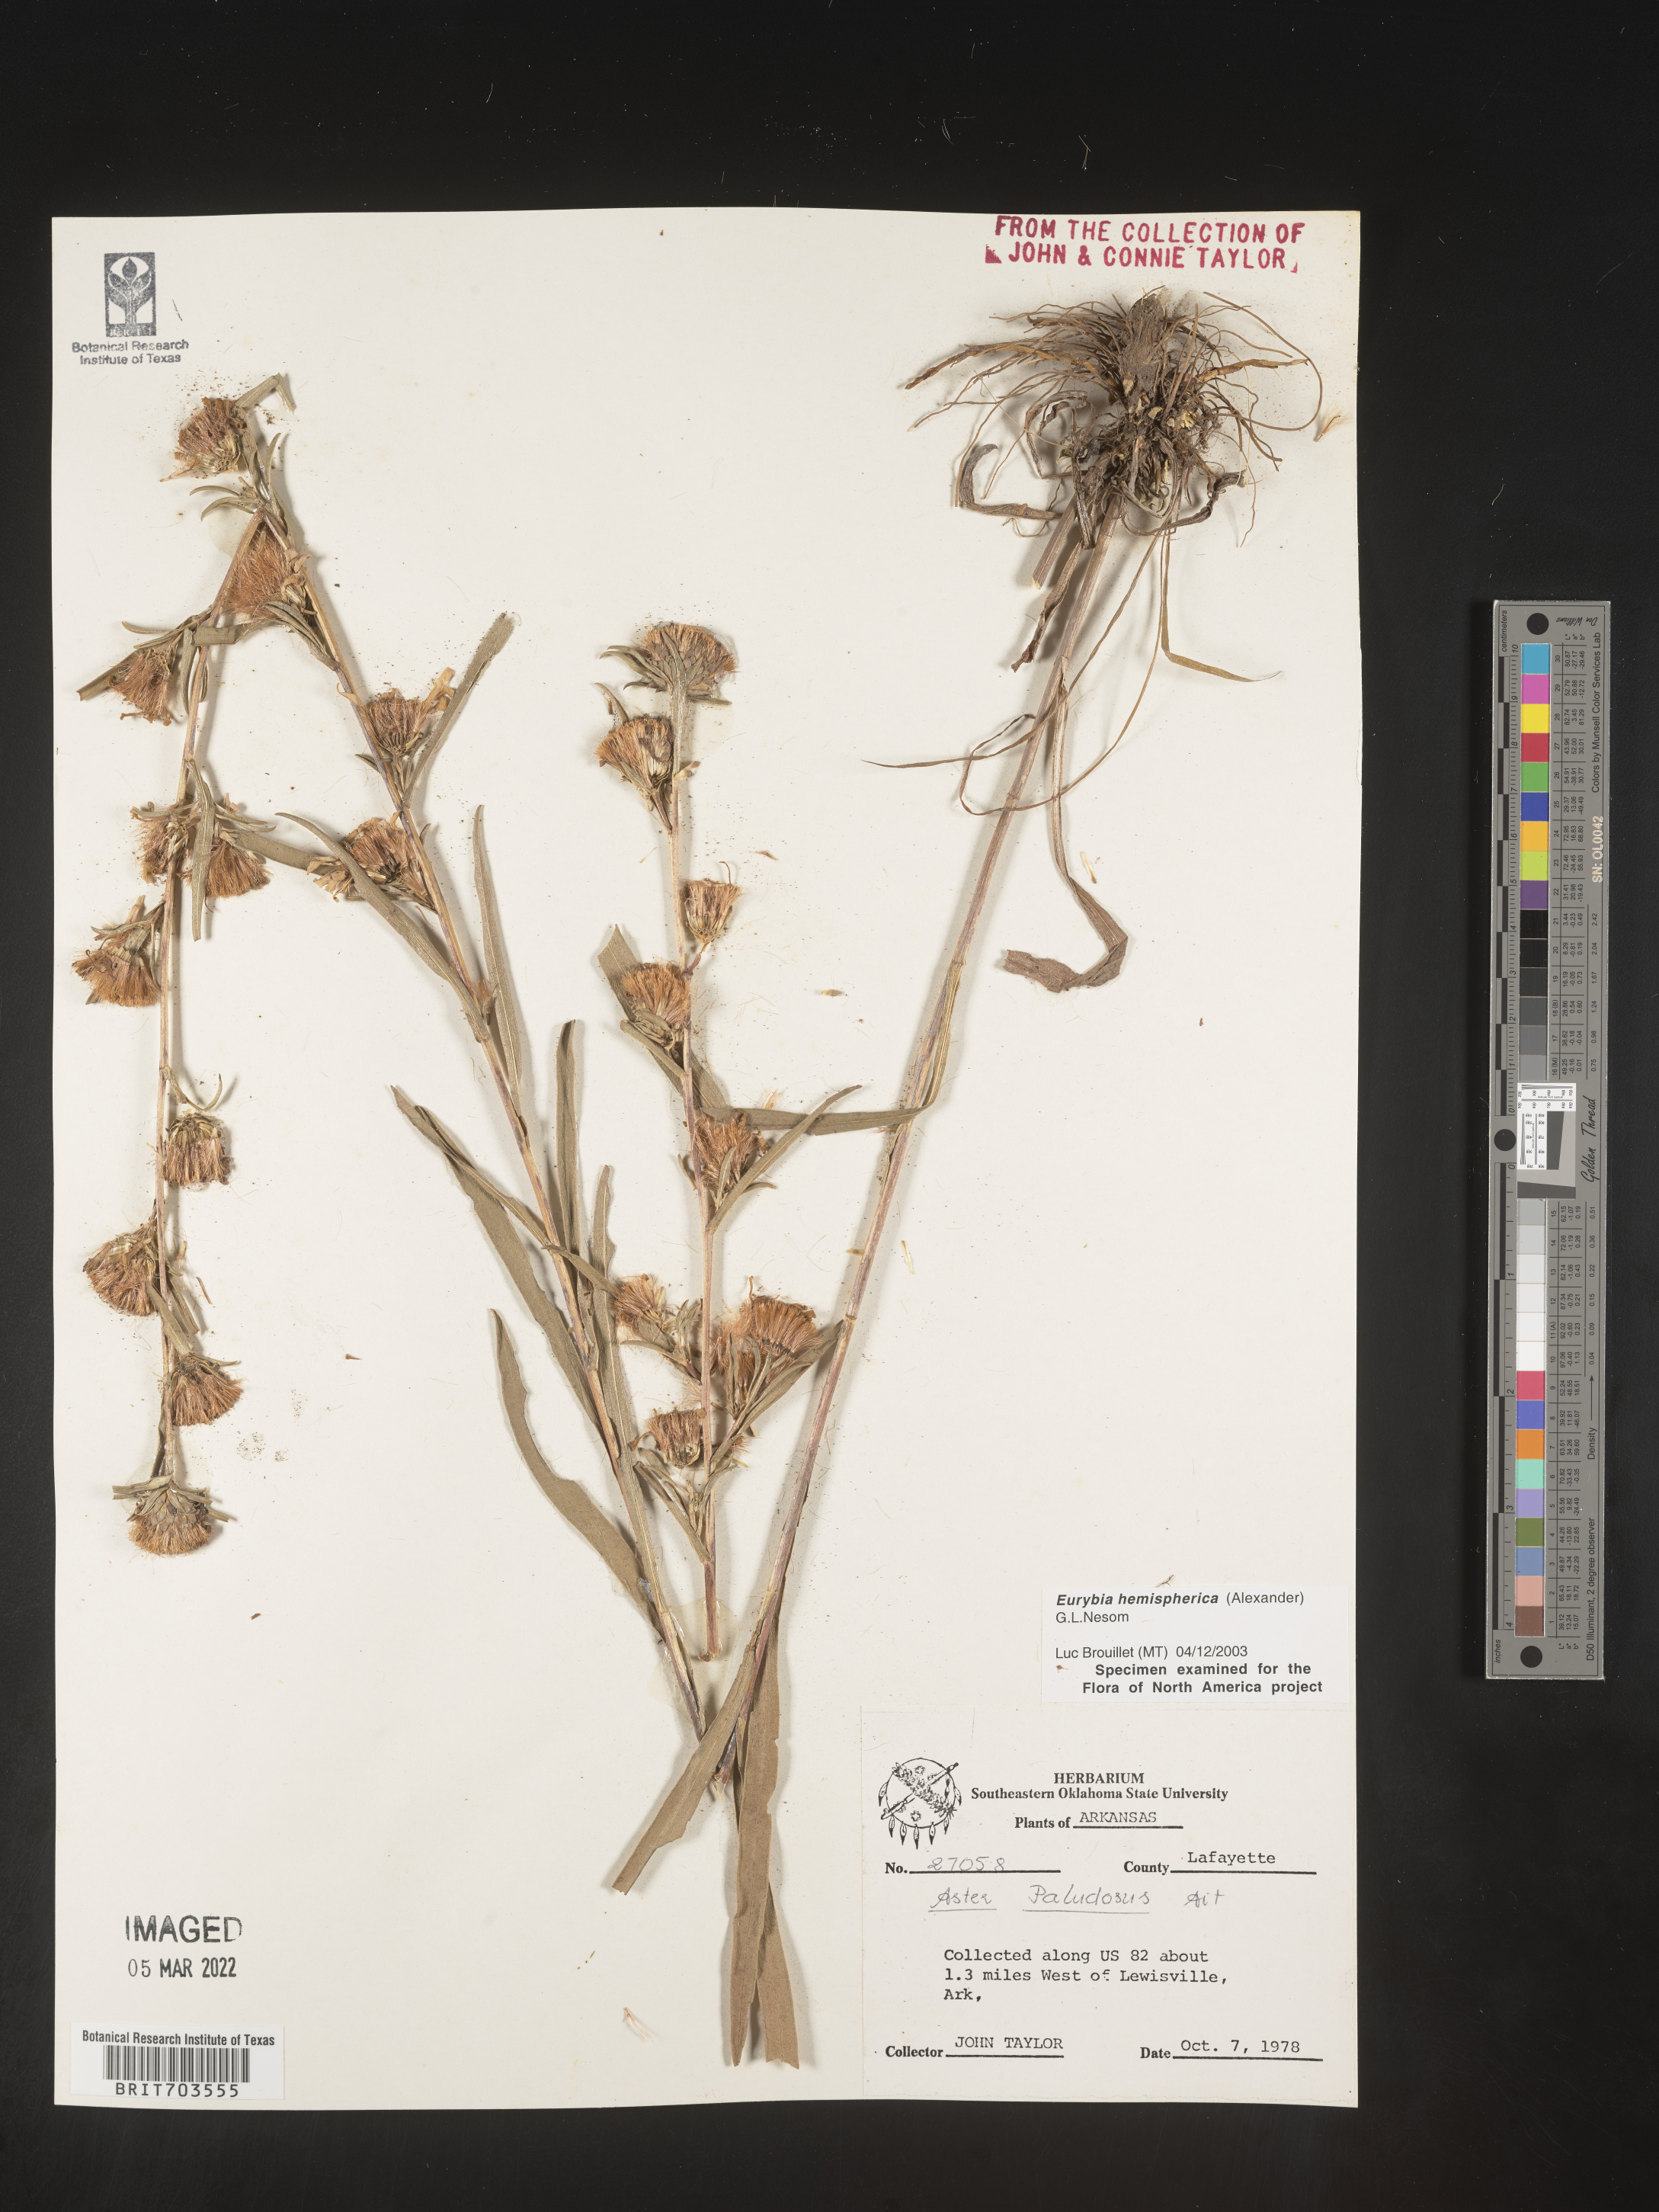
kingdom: Plantae
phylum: Tracheophyta
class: Magnoliopsida
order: Asterales
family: Asteraceae
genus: Eurybia
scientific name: Eurybia hemispherica
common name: Showy aster
